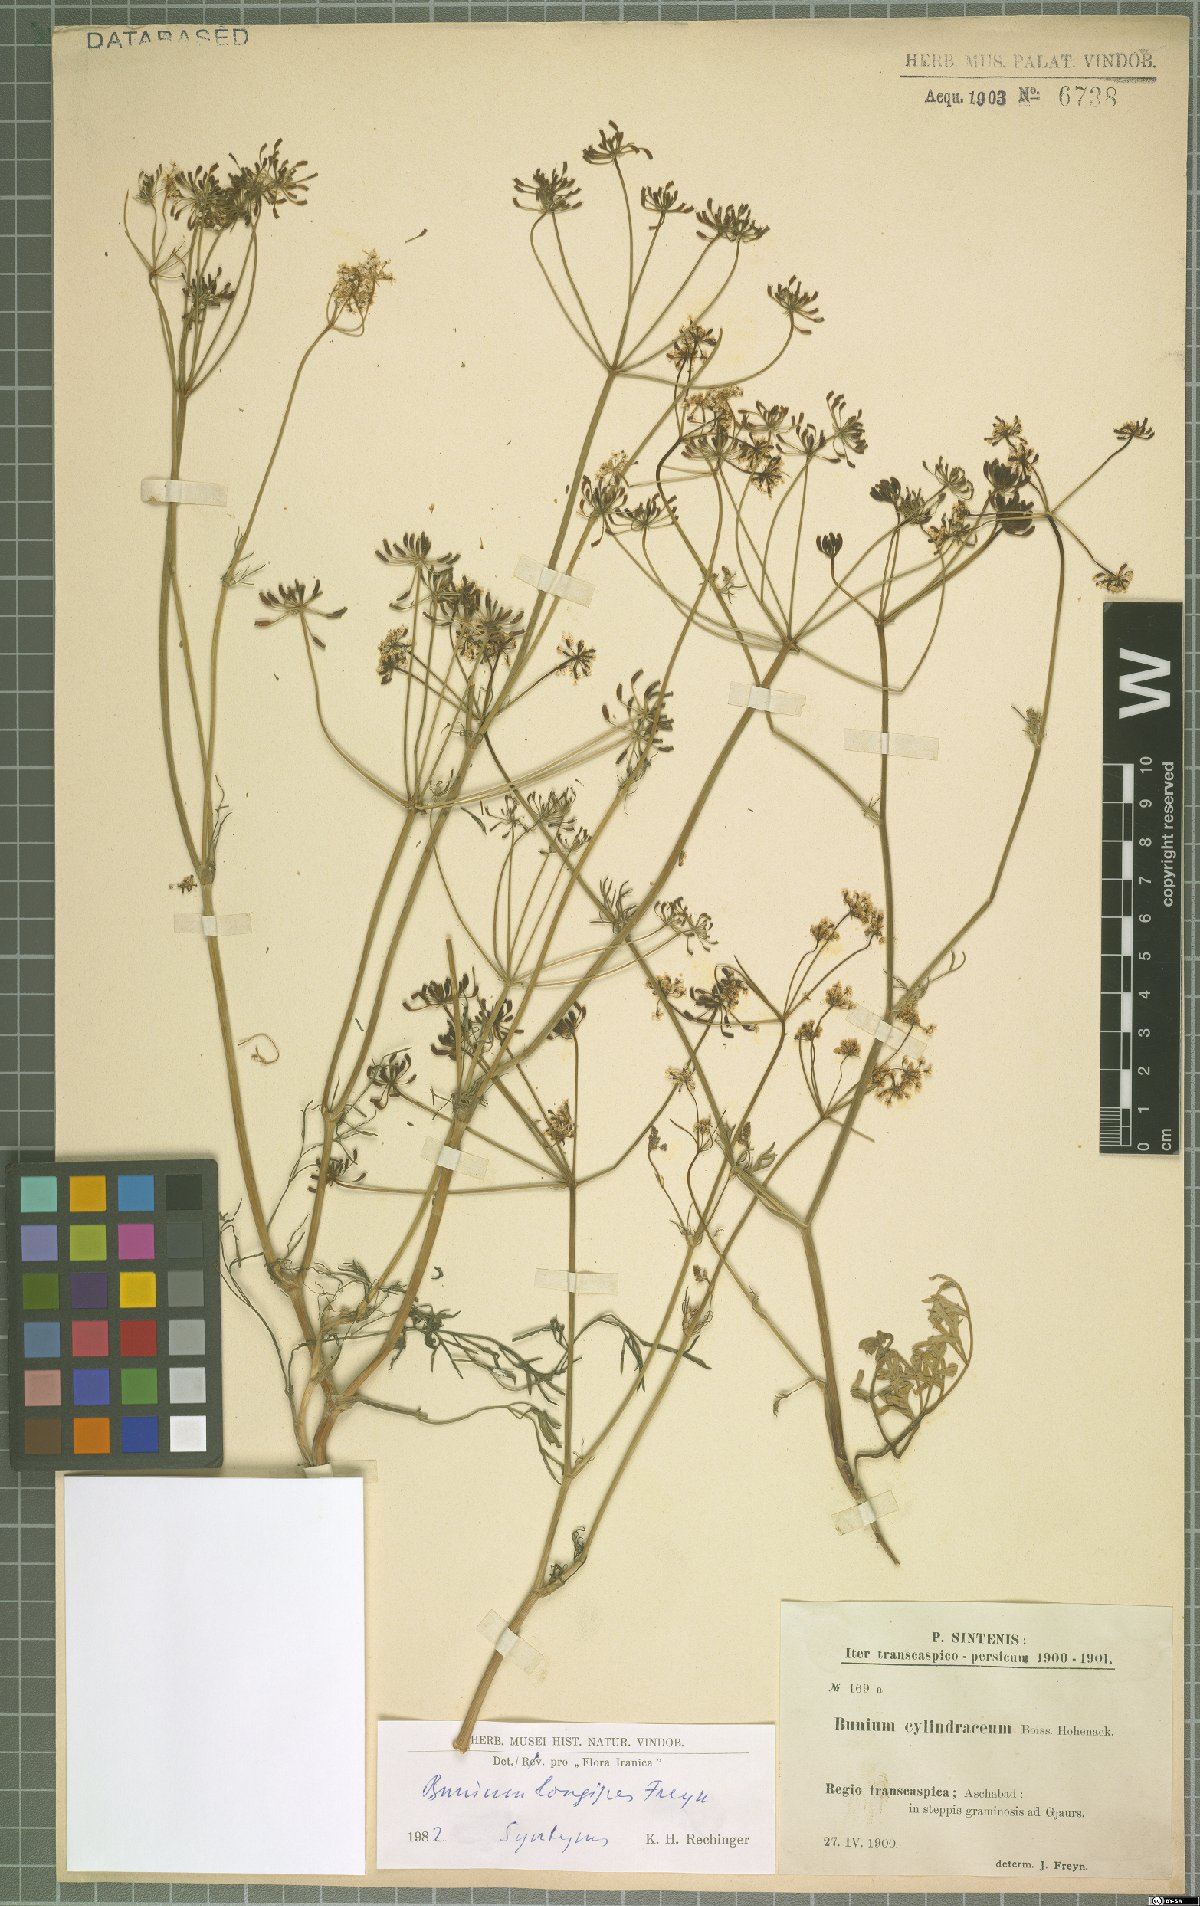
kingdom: Plantae
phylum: Tracheophyta
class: Magnoliopsida
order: Apiales
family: Apiaceae
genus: Elwendia
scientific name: Elwendia longipes
